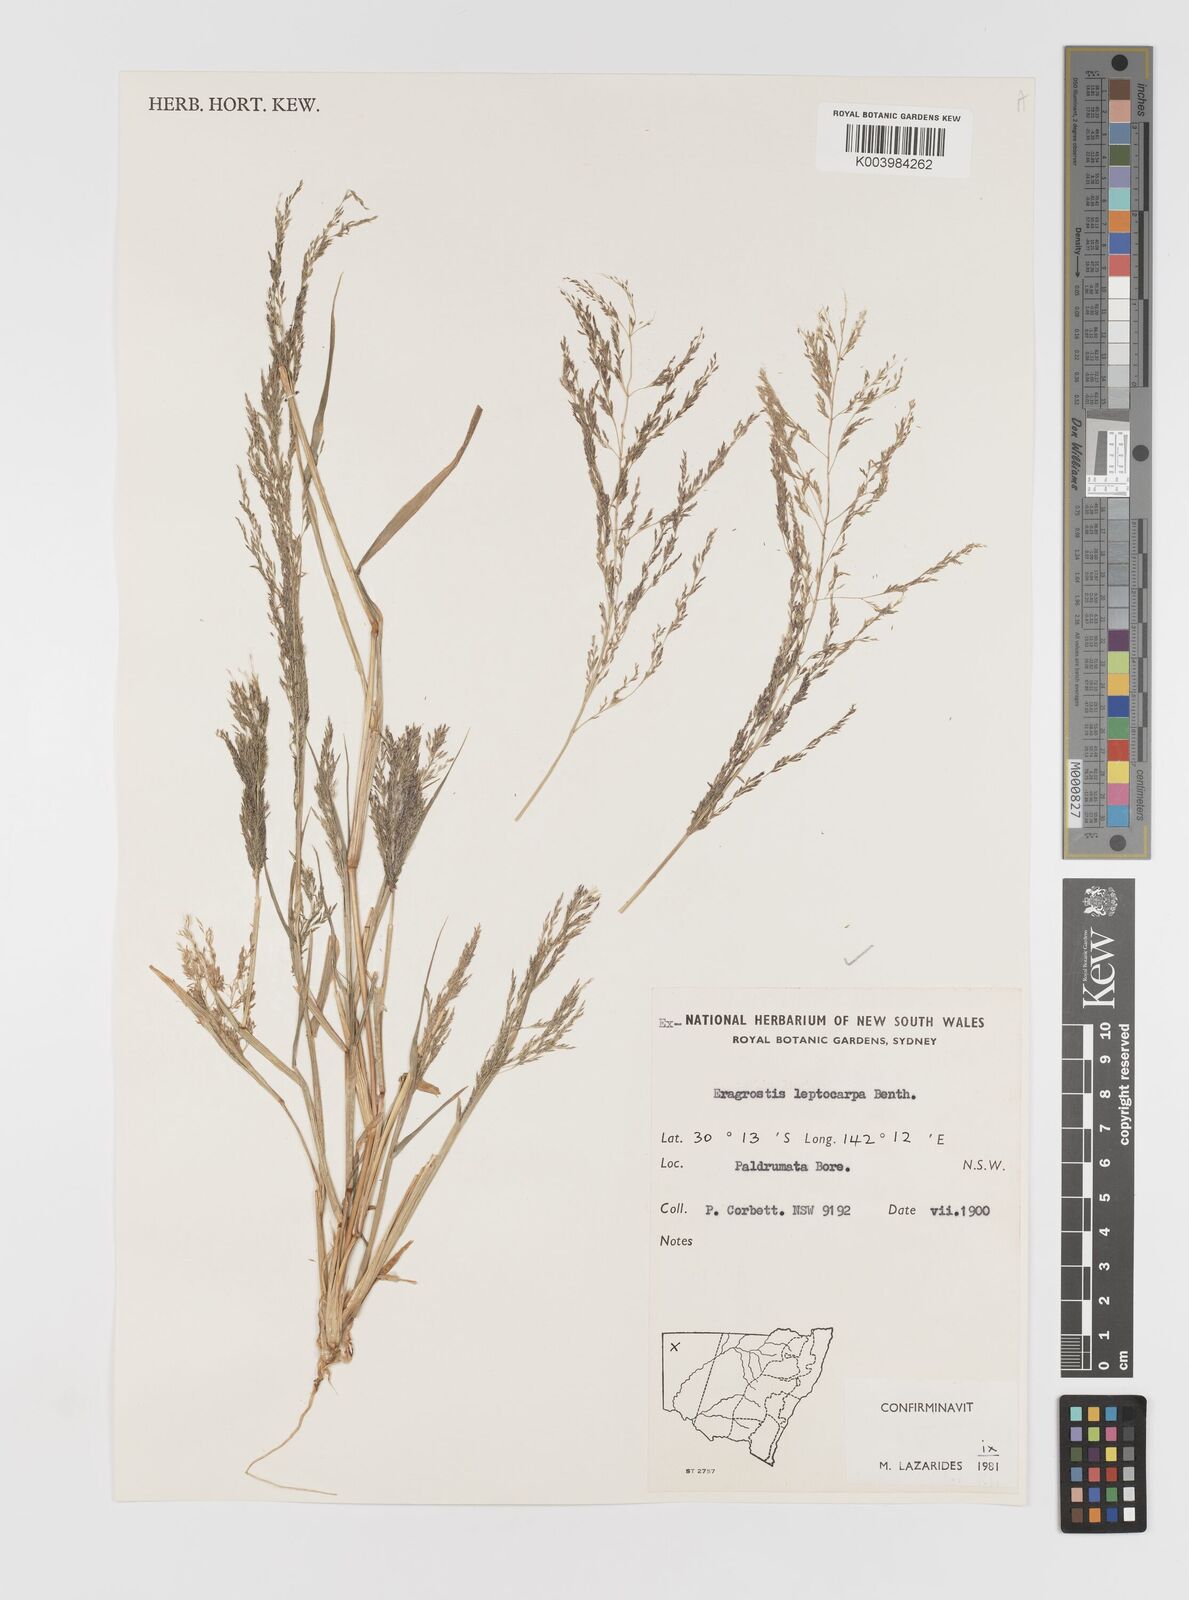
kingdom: Plantae
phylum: Tracheophyta
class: Liliopsida
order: Poales
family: Poaceae
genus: Eragrostis
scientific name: Eragrostis leptocarpa
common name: Drooping love grass
